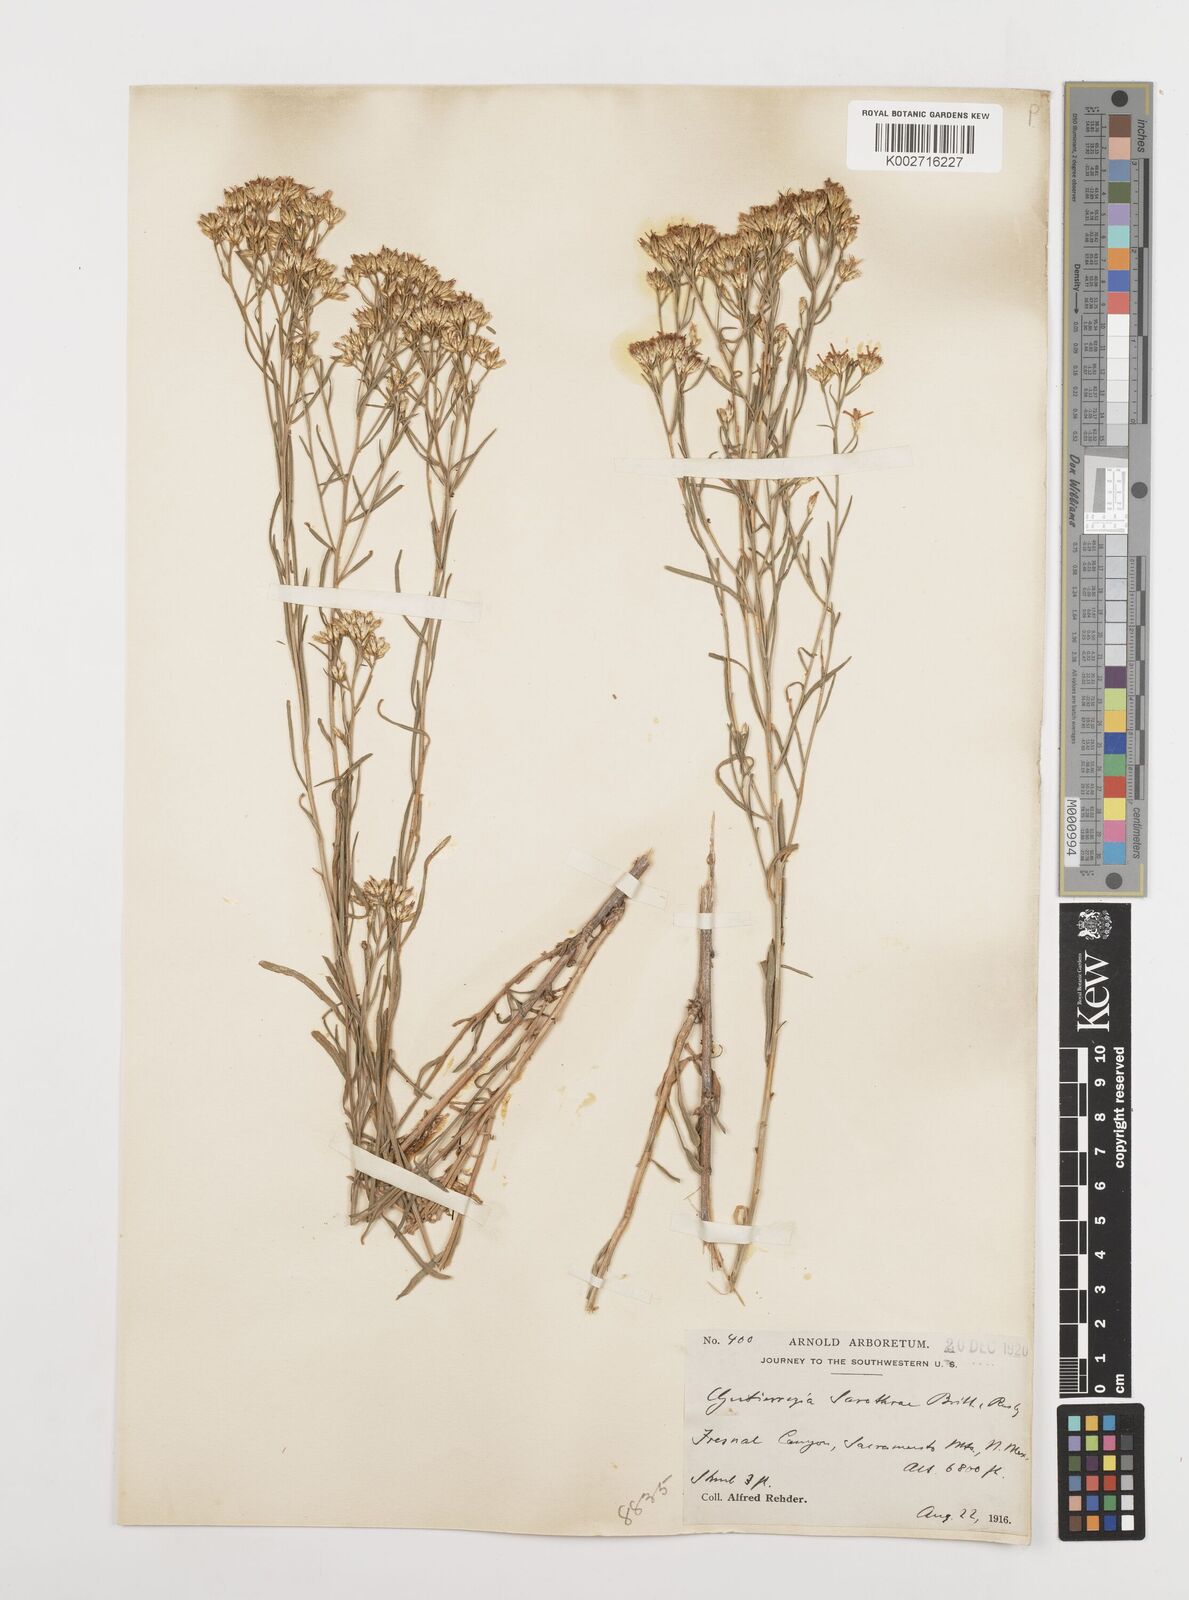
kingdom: Plantae
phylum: Tracheophyta
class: Magnoliopsida
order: Asterales
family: Asteraceae
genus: Gutierrezia
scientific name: Gutierrezia sarothrae
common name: Broom snakeweed
